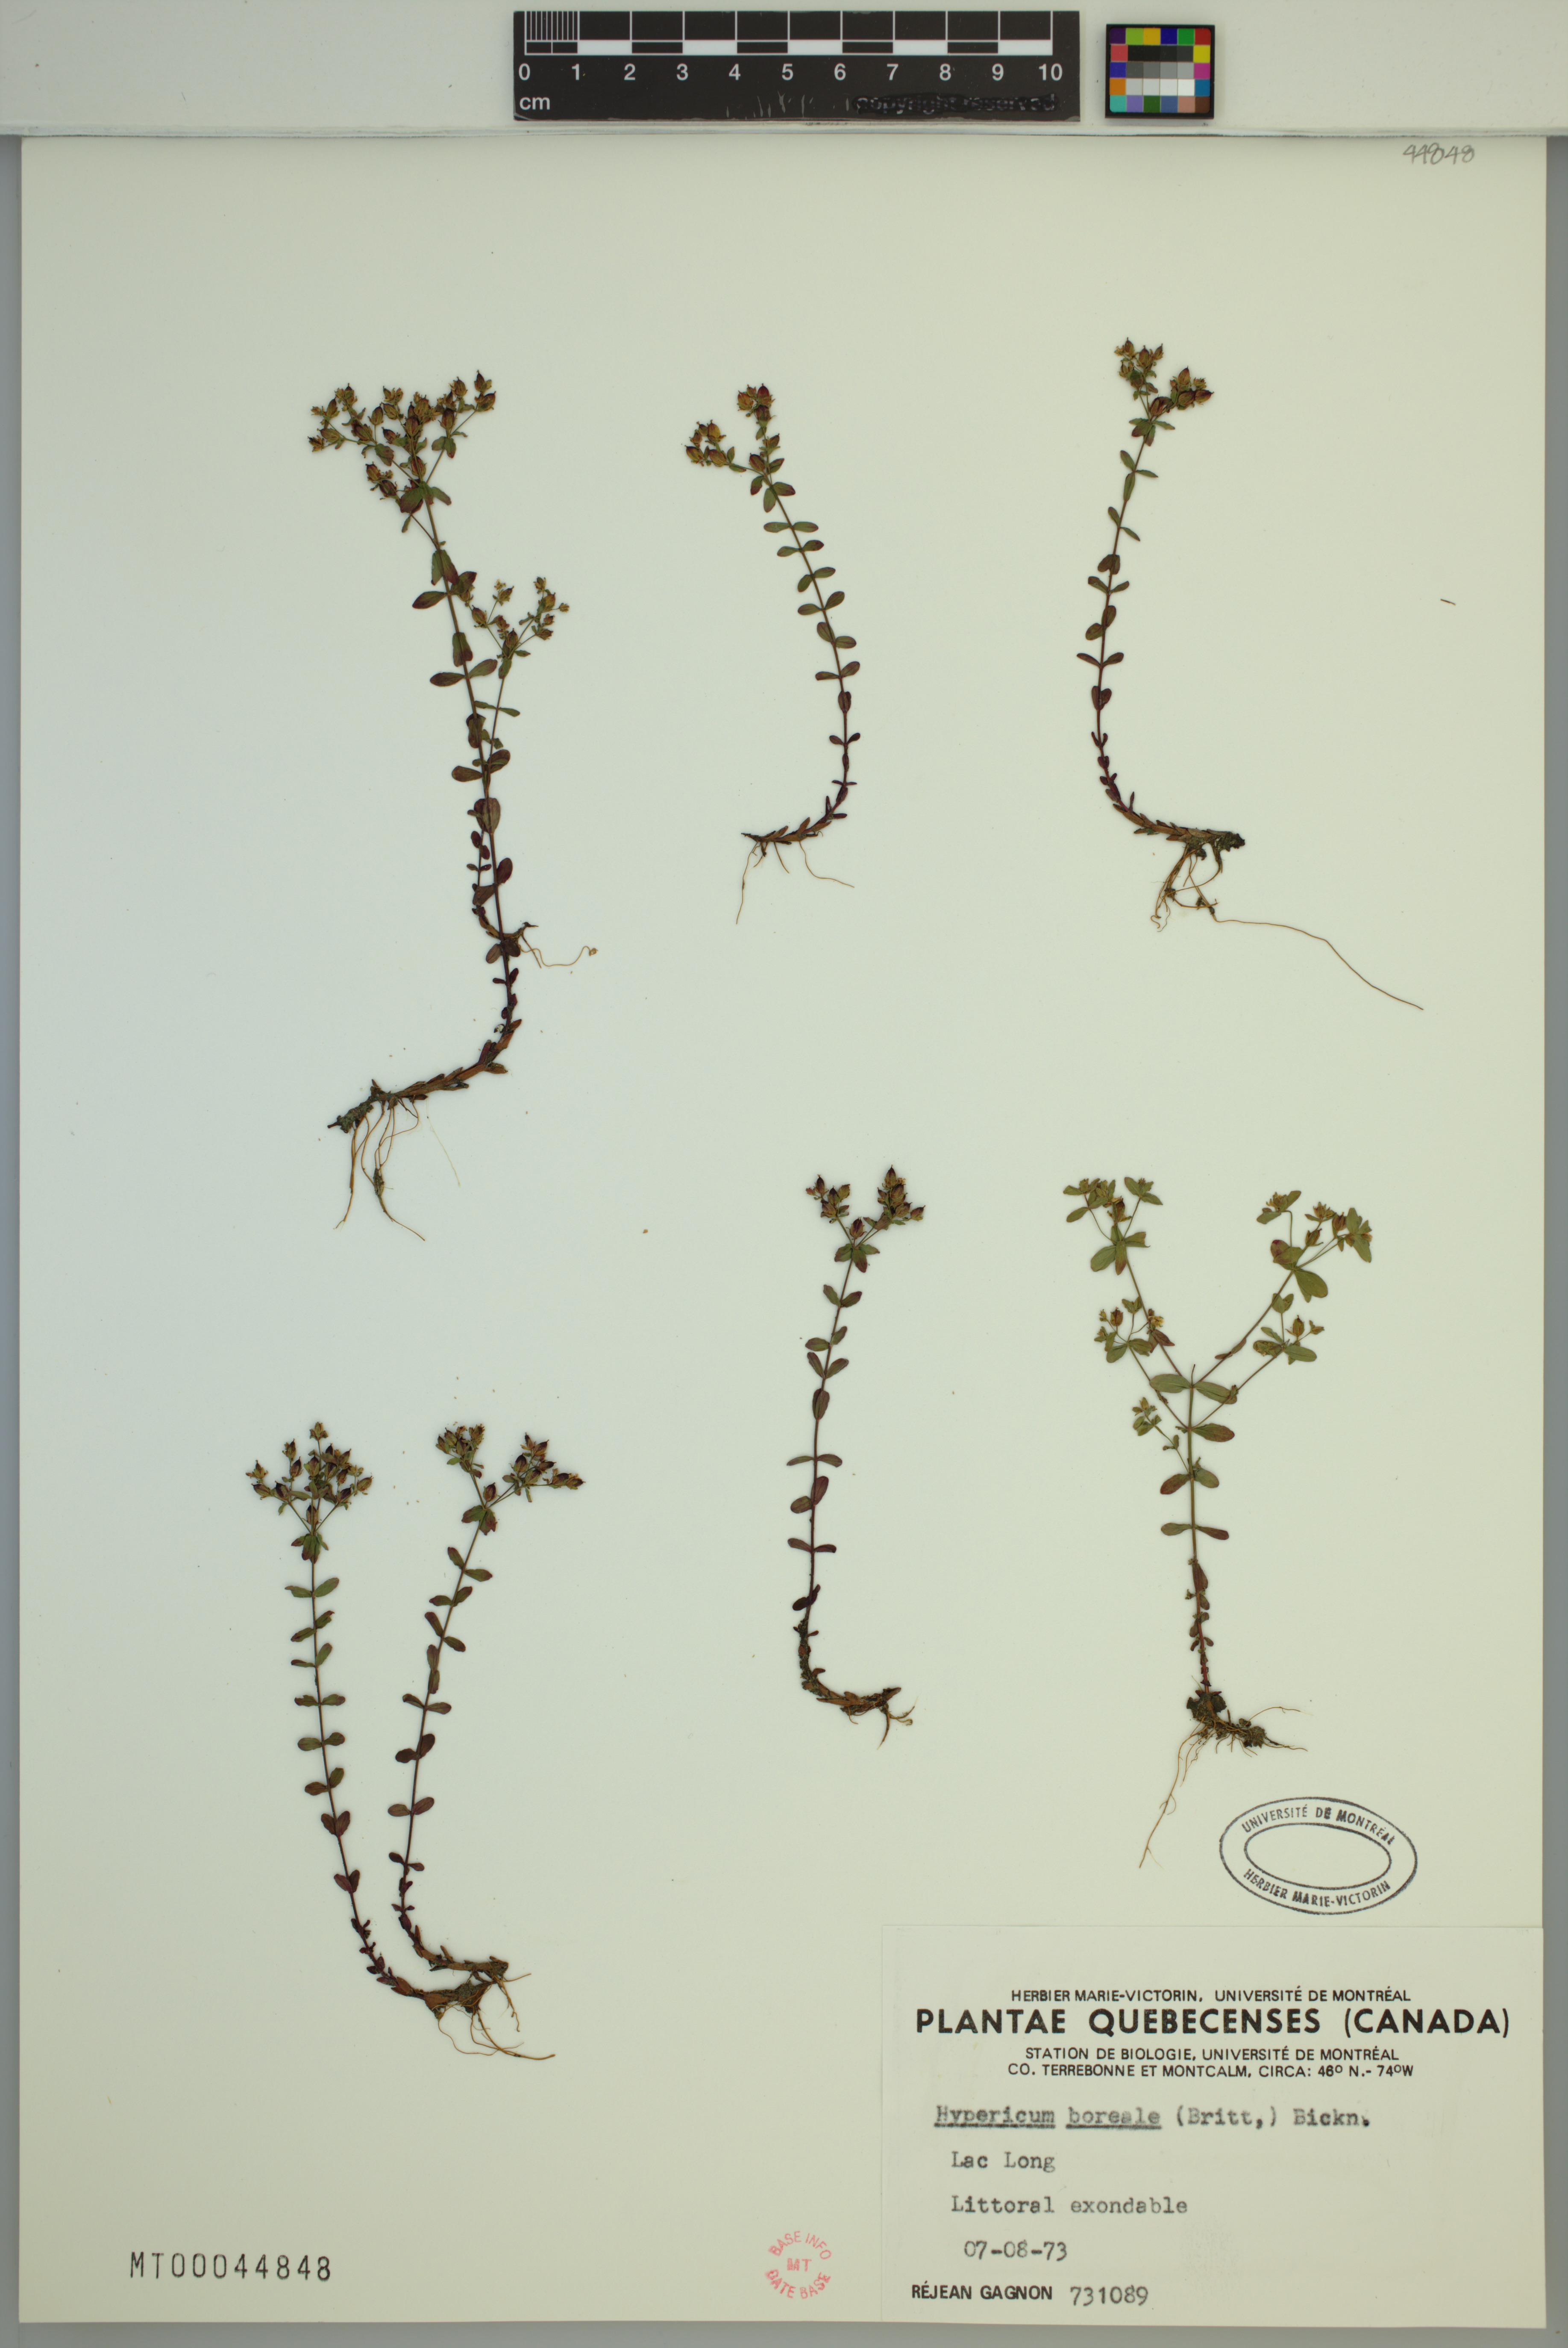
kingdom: Plantae
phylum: Tracheophyta
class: Magnoliopsida
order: Malpighiales
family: Hypericaceae
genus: Hypericum
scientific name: Hypericum boreale
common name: Northern bog st. john's-wort
